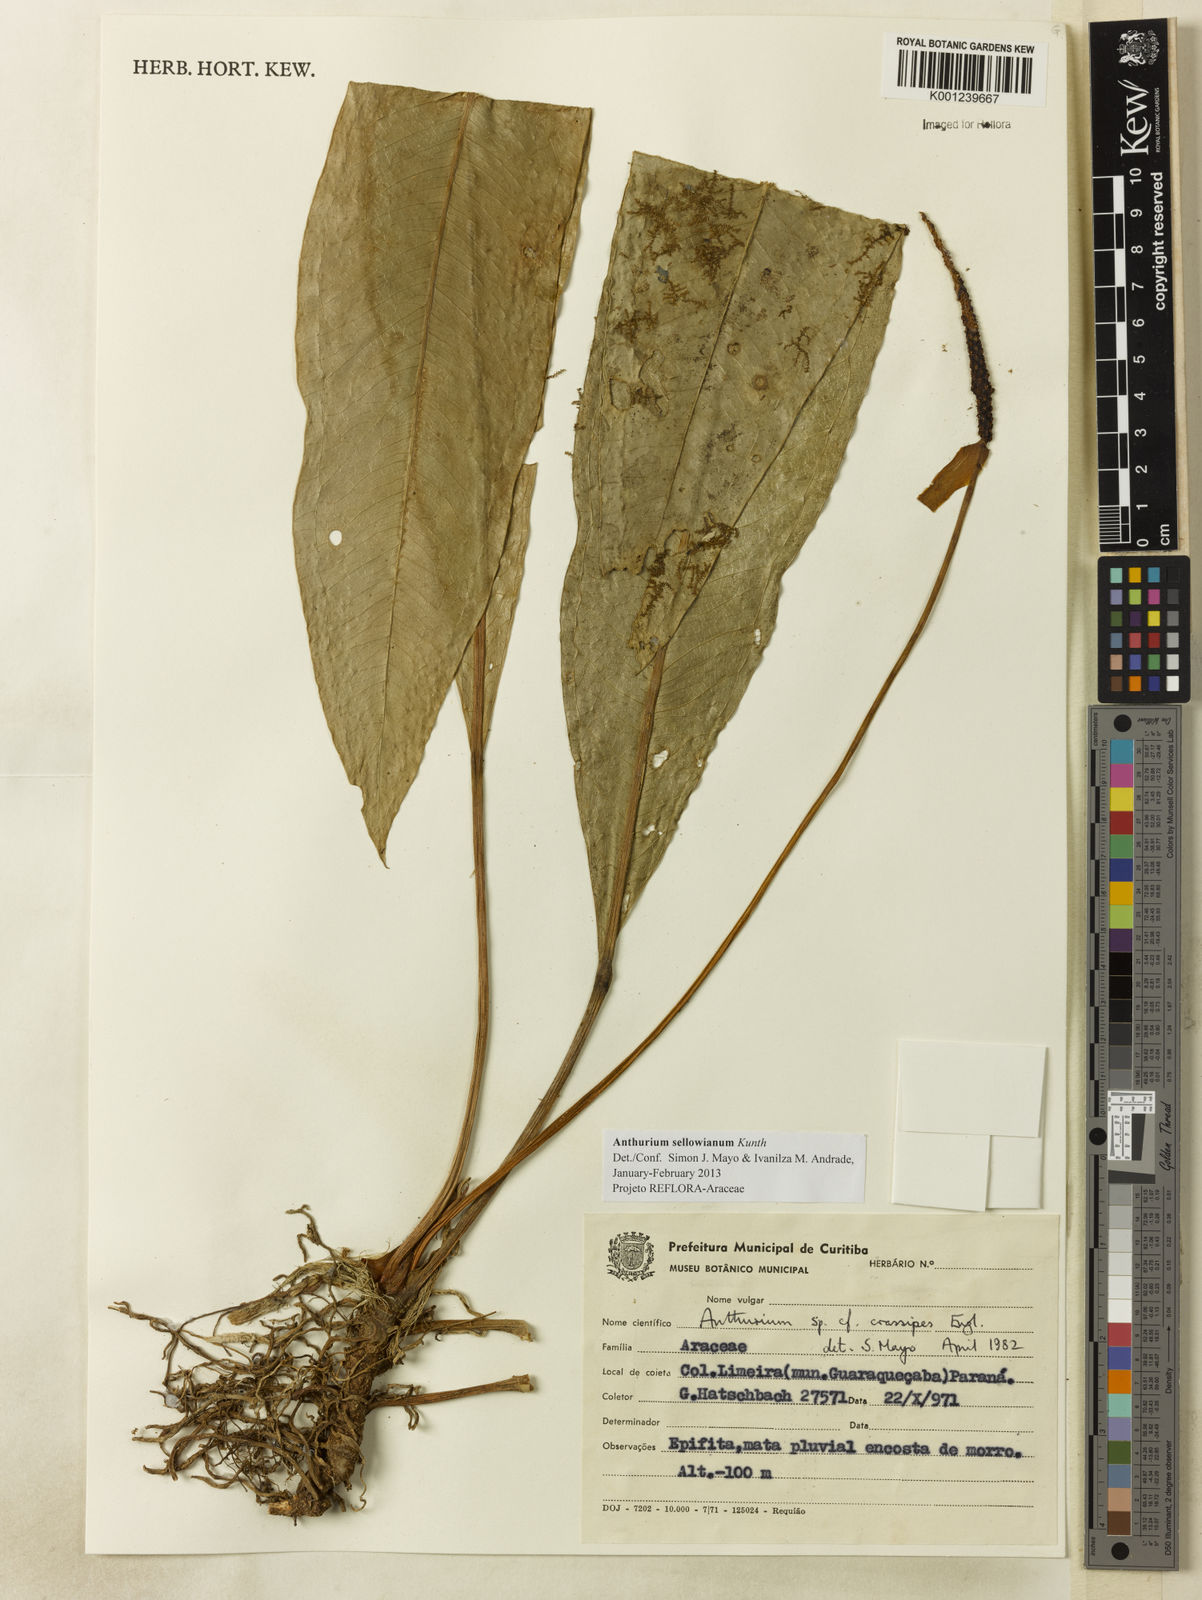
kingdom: Plantae
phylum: Tracheophyta
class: Liliopsida
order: Alismatales
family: Araceae
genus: Anthurium
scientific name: Anthurium sellowianum
